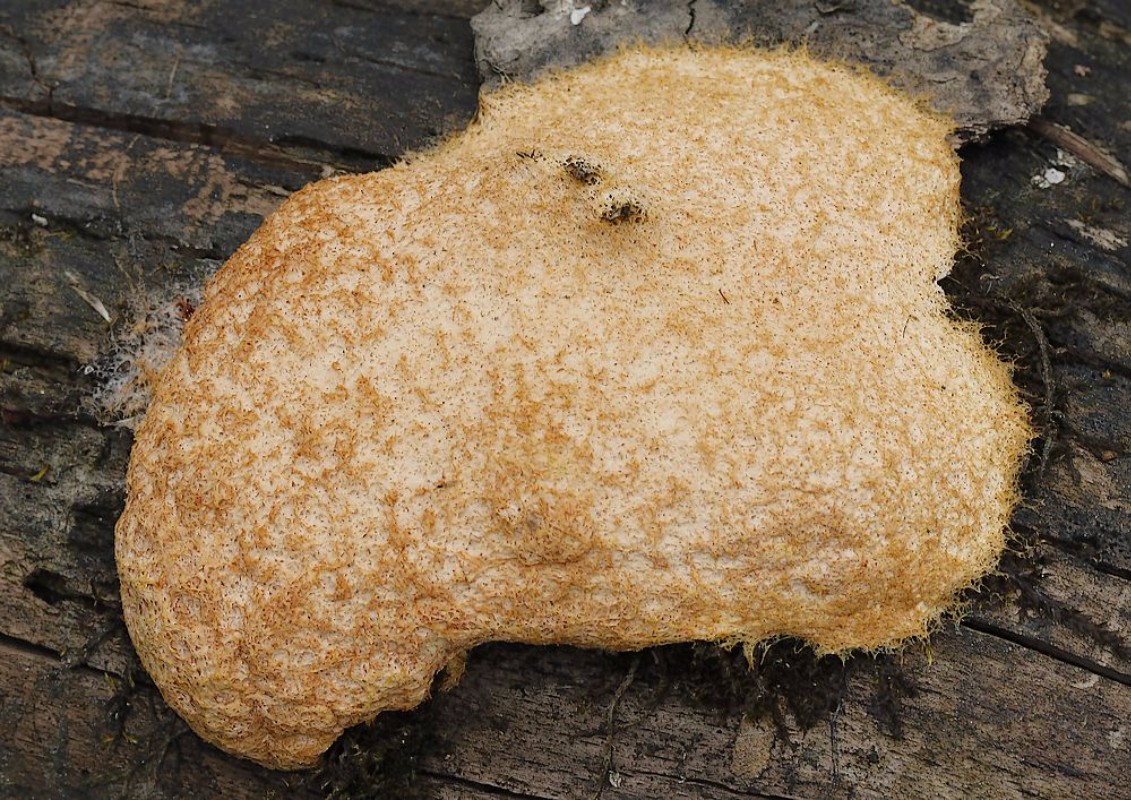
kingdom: Protozoa
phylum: Mycetozoa
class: Myxomycetes
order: Physarales
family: Physaraceae
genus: Fuligo
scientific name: Fuligo septica
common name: Dog vomit slime mold
